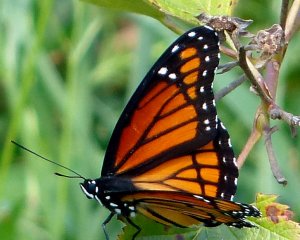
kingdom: Animalia
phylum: Arthropoda
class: Insecta
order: Lepidoptera
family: Nymphalidae
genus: Limenitis
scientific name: Limenitis archippus
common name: Viceroy
